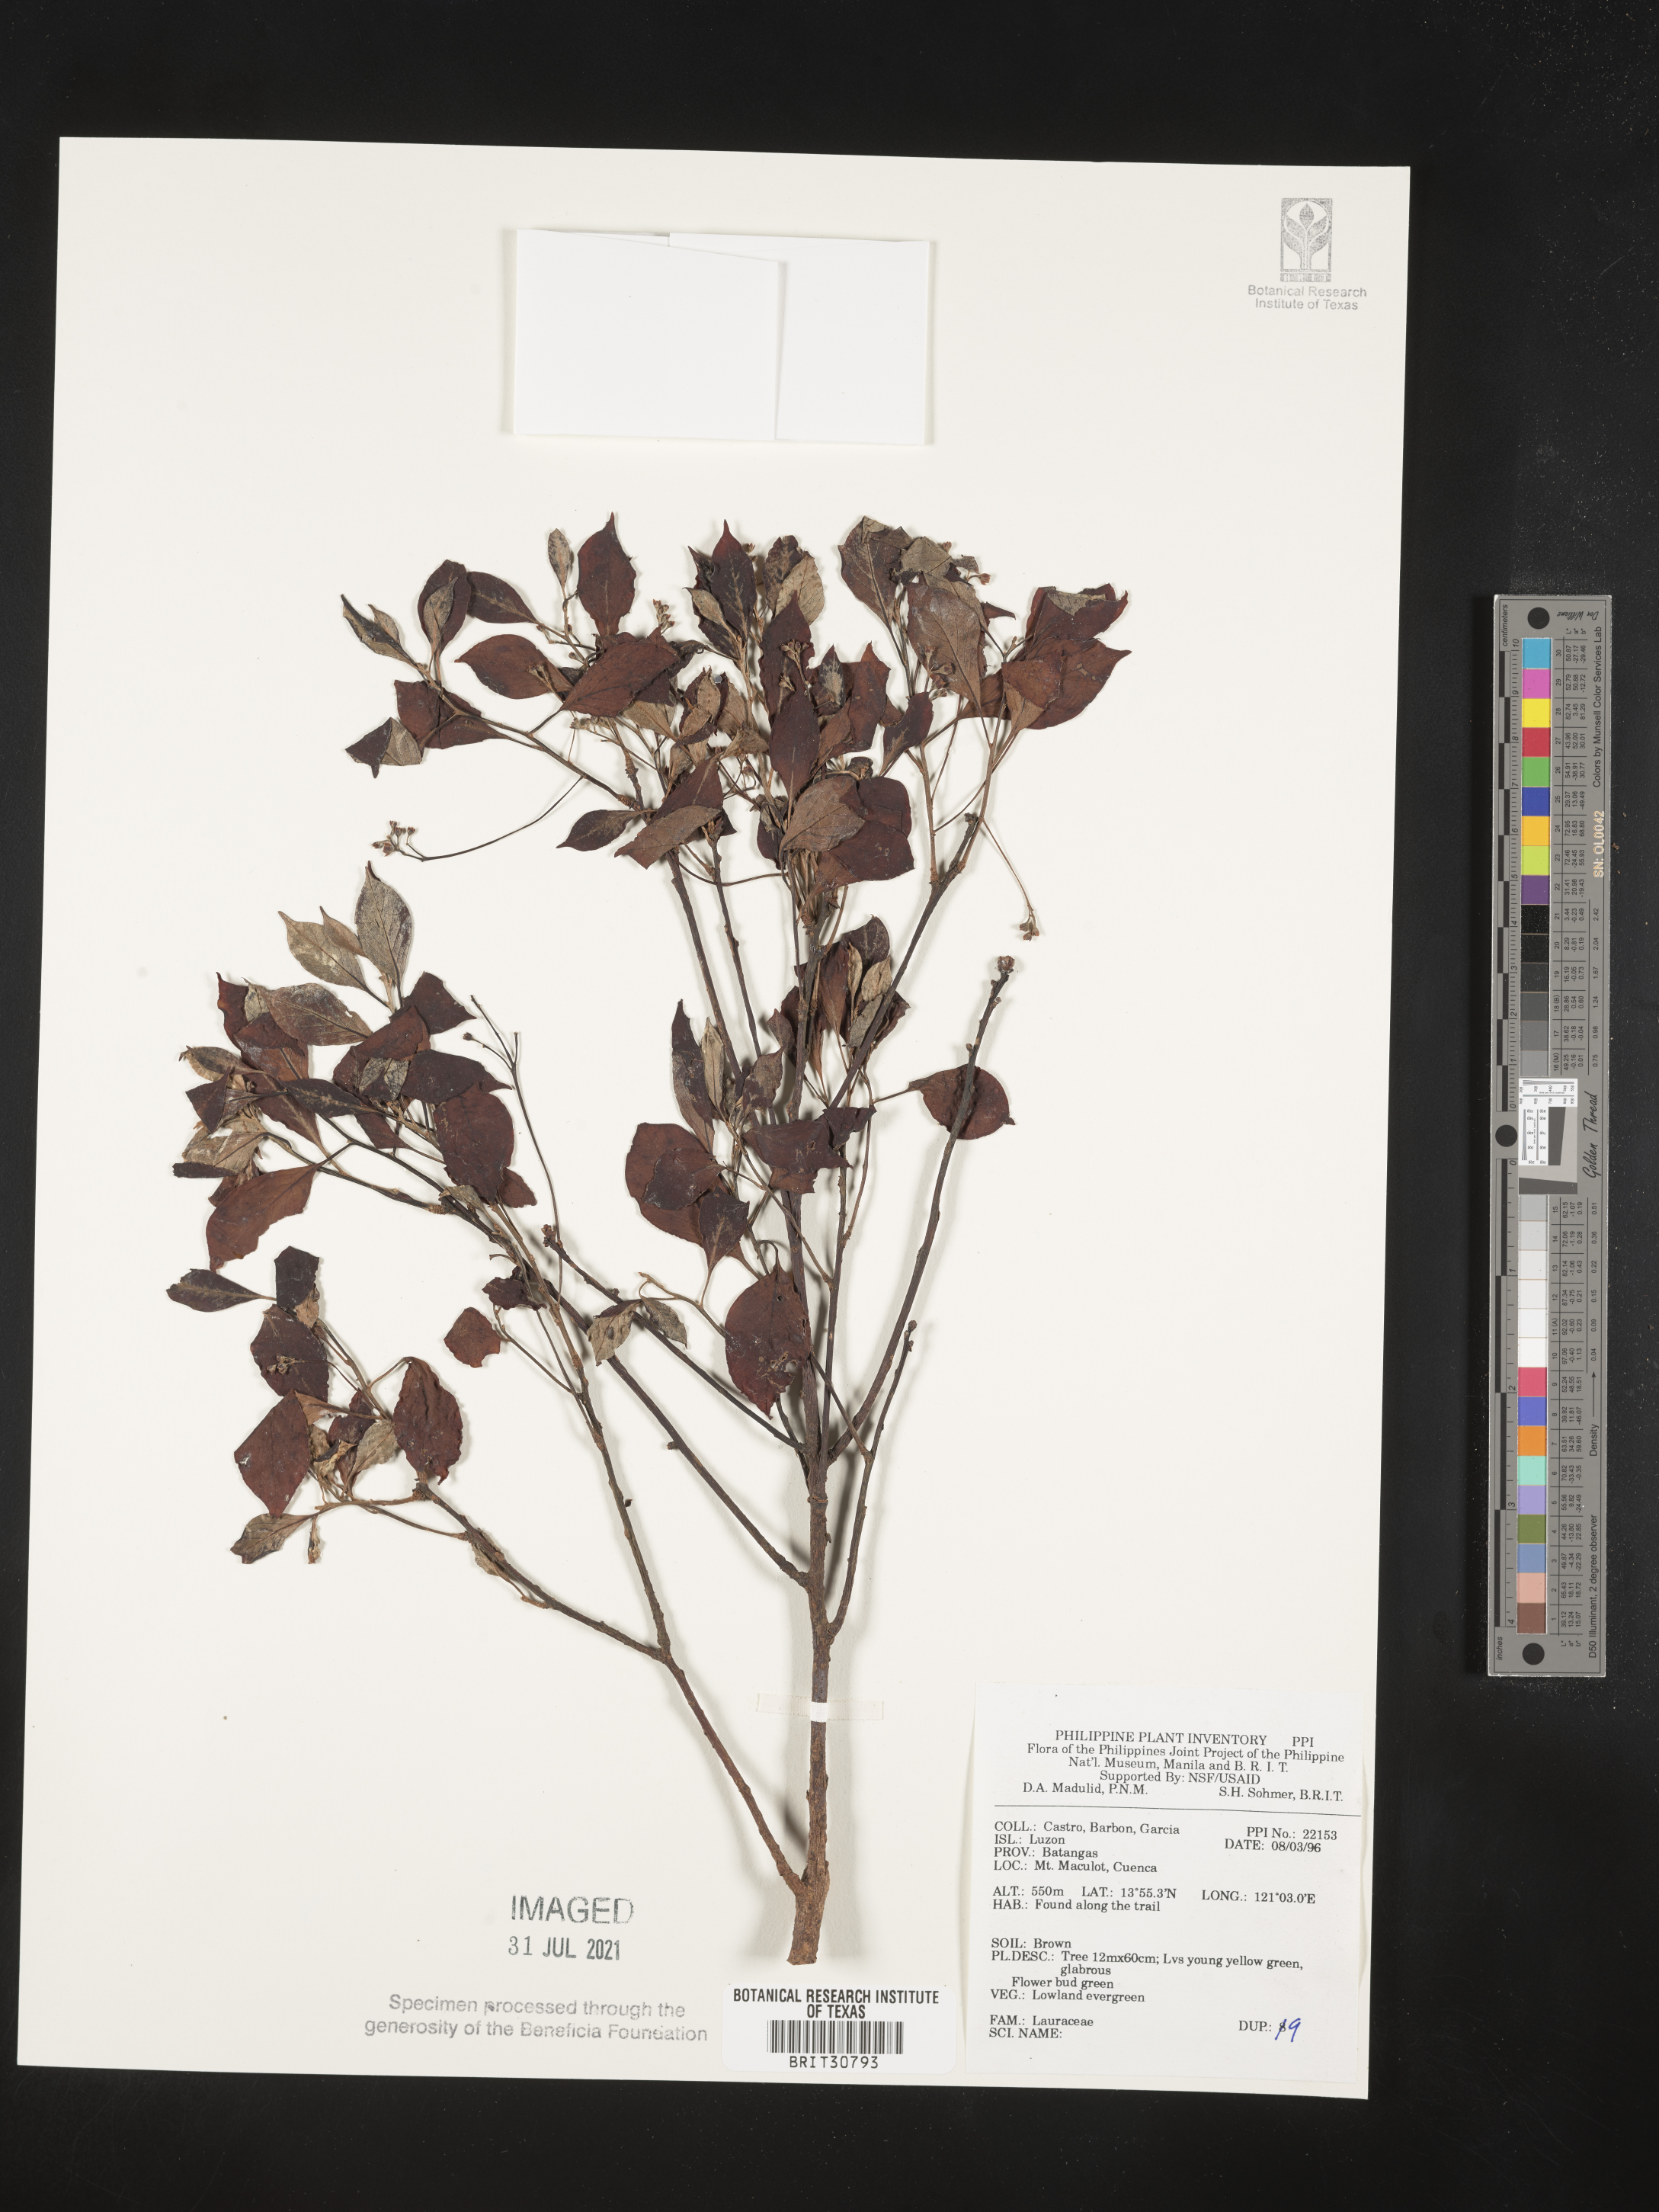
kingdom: Plantae
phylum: Tracheophyta
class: Magnoliopsida
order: Laurales
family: Lauraceae
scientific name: Lauraceae
